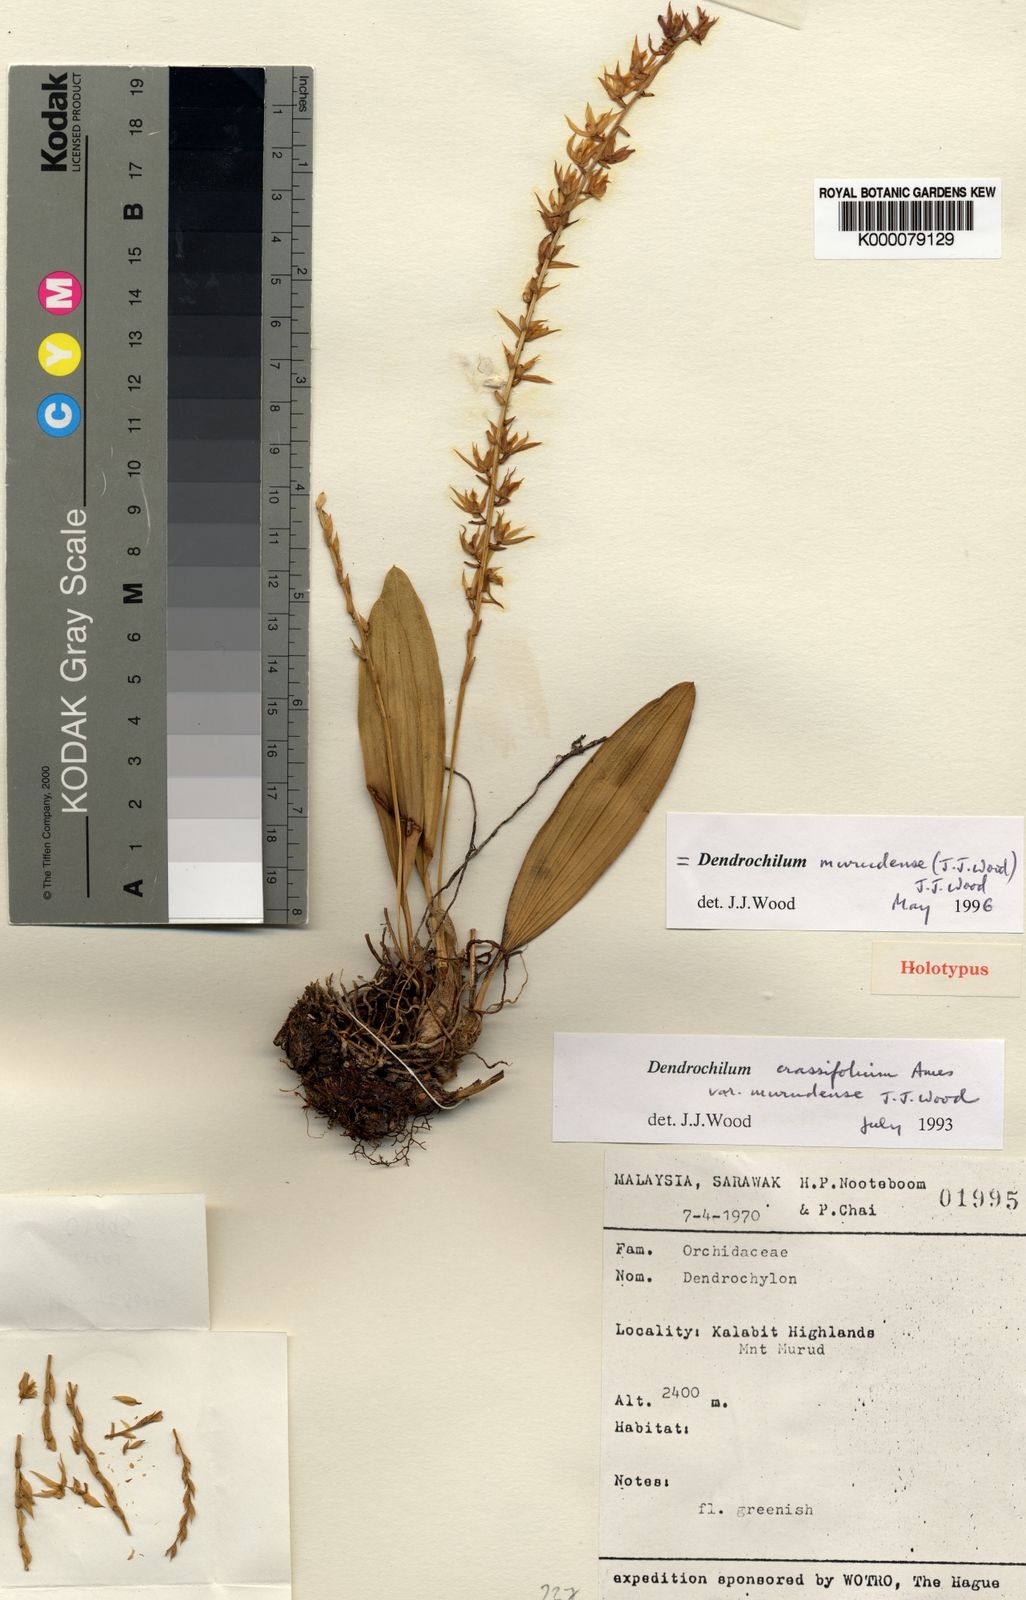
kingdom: Plantae
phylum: Tracheophyta
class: Liliopsida
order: Asparagales
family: Orchidaceae
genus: Coelogyne
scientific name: Coelogyne murudensis
